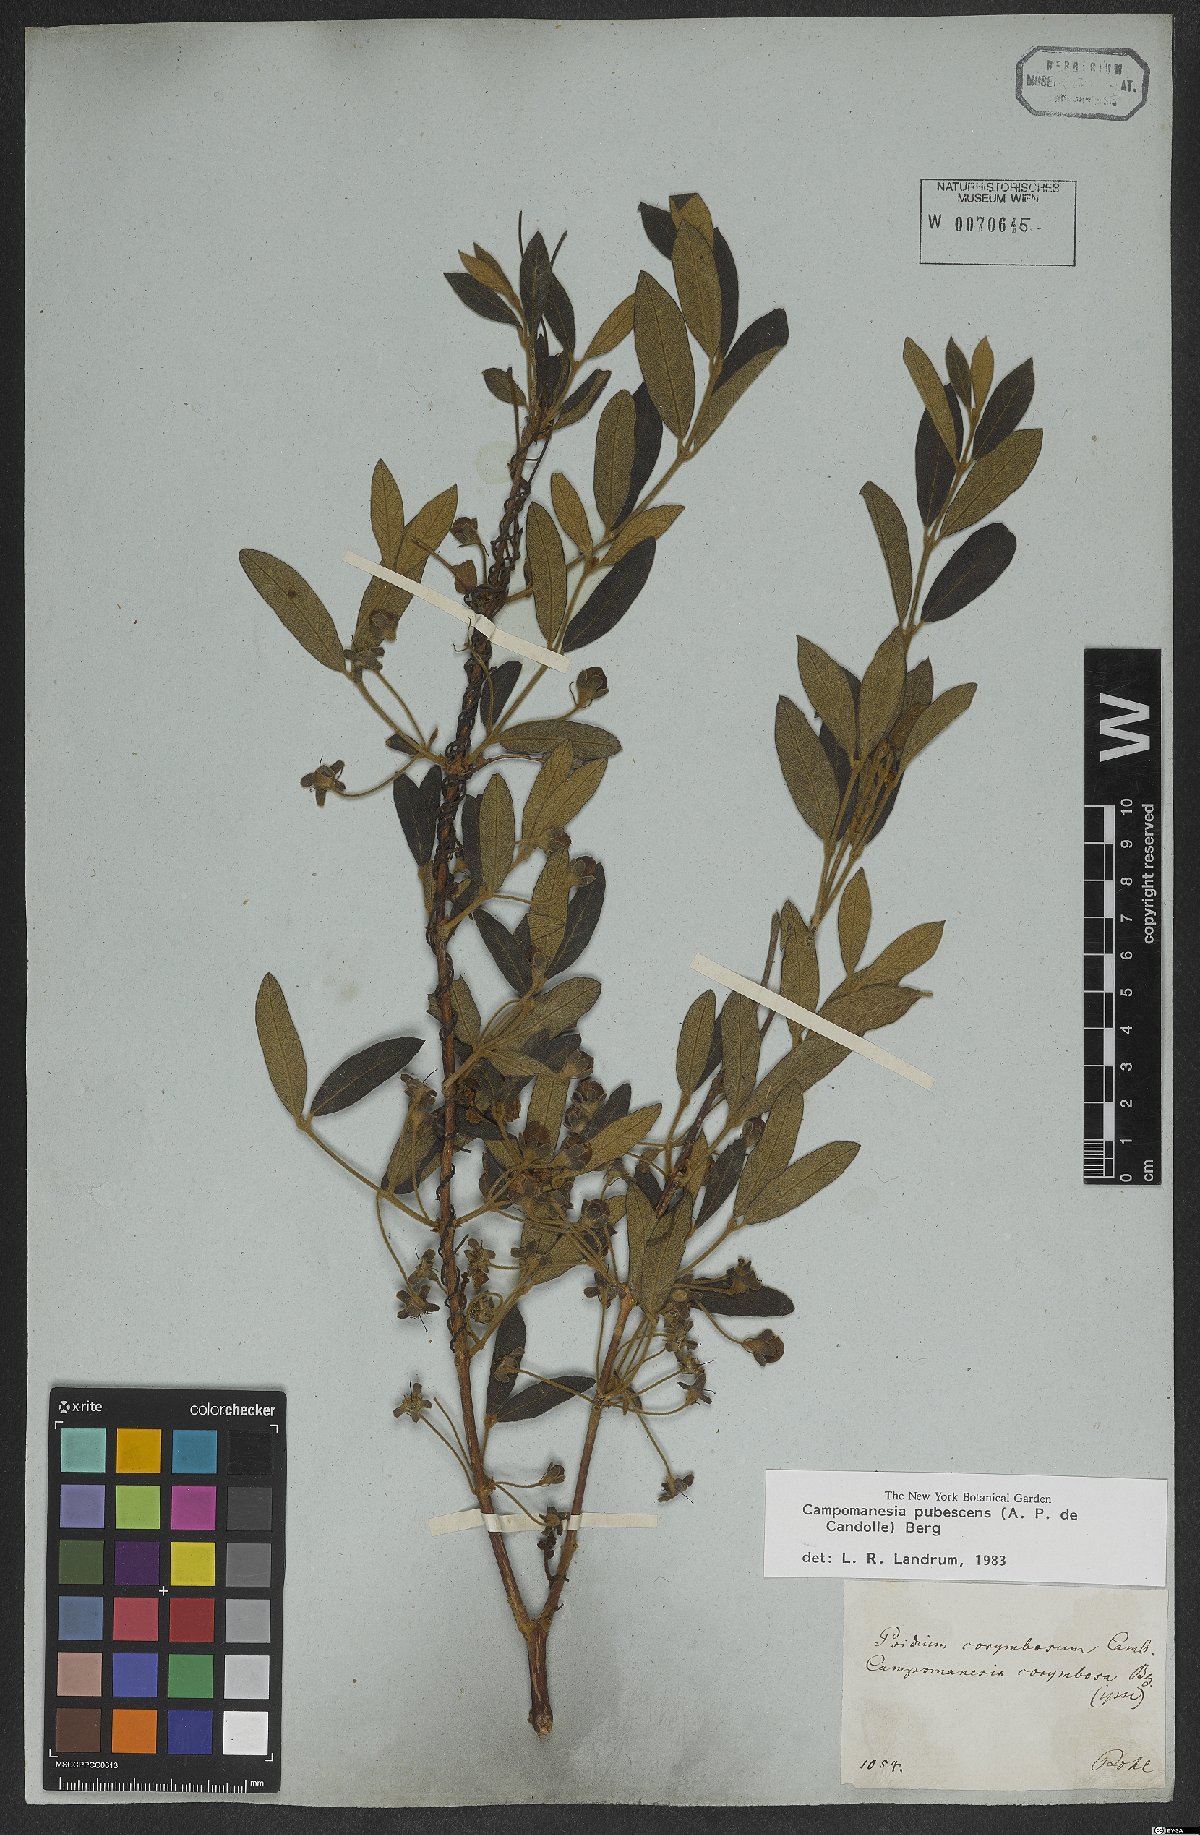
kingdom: Plantae
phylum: Tracheophyta
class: Magnoliopsida
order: Myrtales
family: Myrtaceae
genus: Campomanesia
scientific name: Campomanesia pubescens
